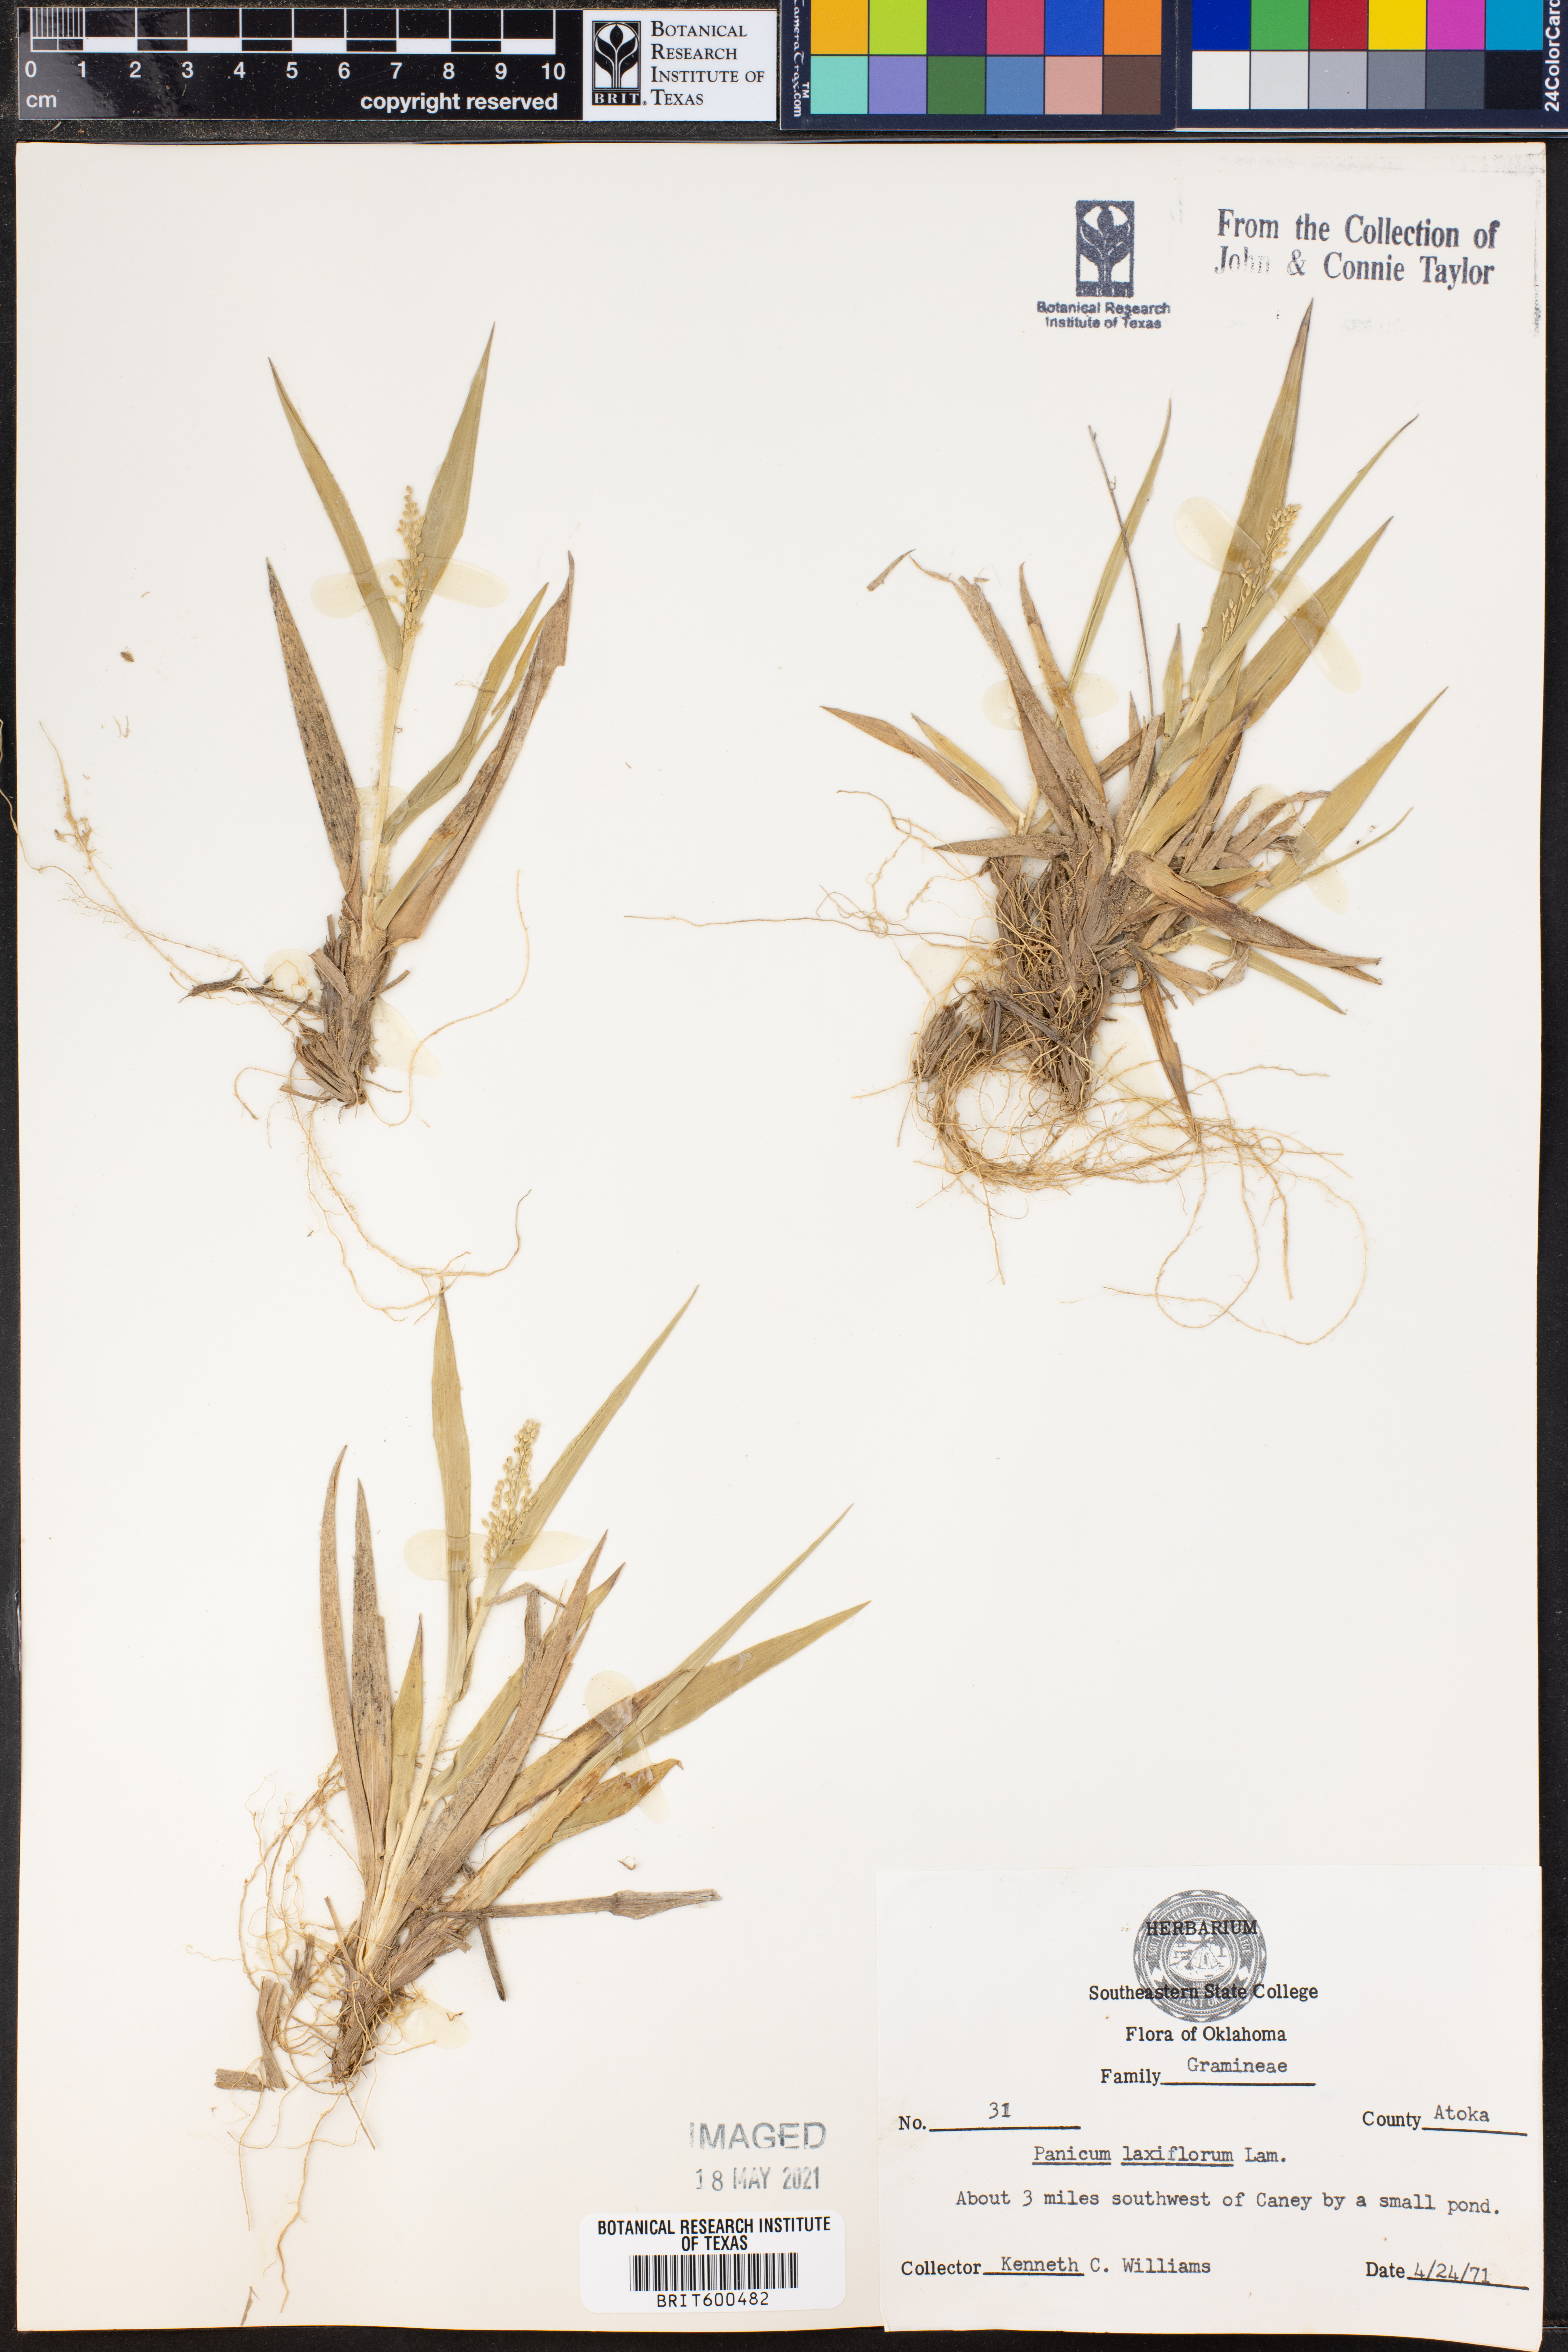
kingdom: Plantae
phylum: Tracheophyta
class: Liliopsida
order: Poales
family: Poaceae
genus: Dichanthelium
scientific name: Dichanthelium laxiflorum
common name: Soft-tuft panic grass
